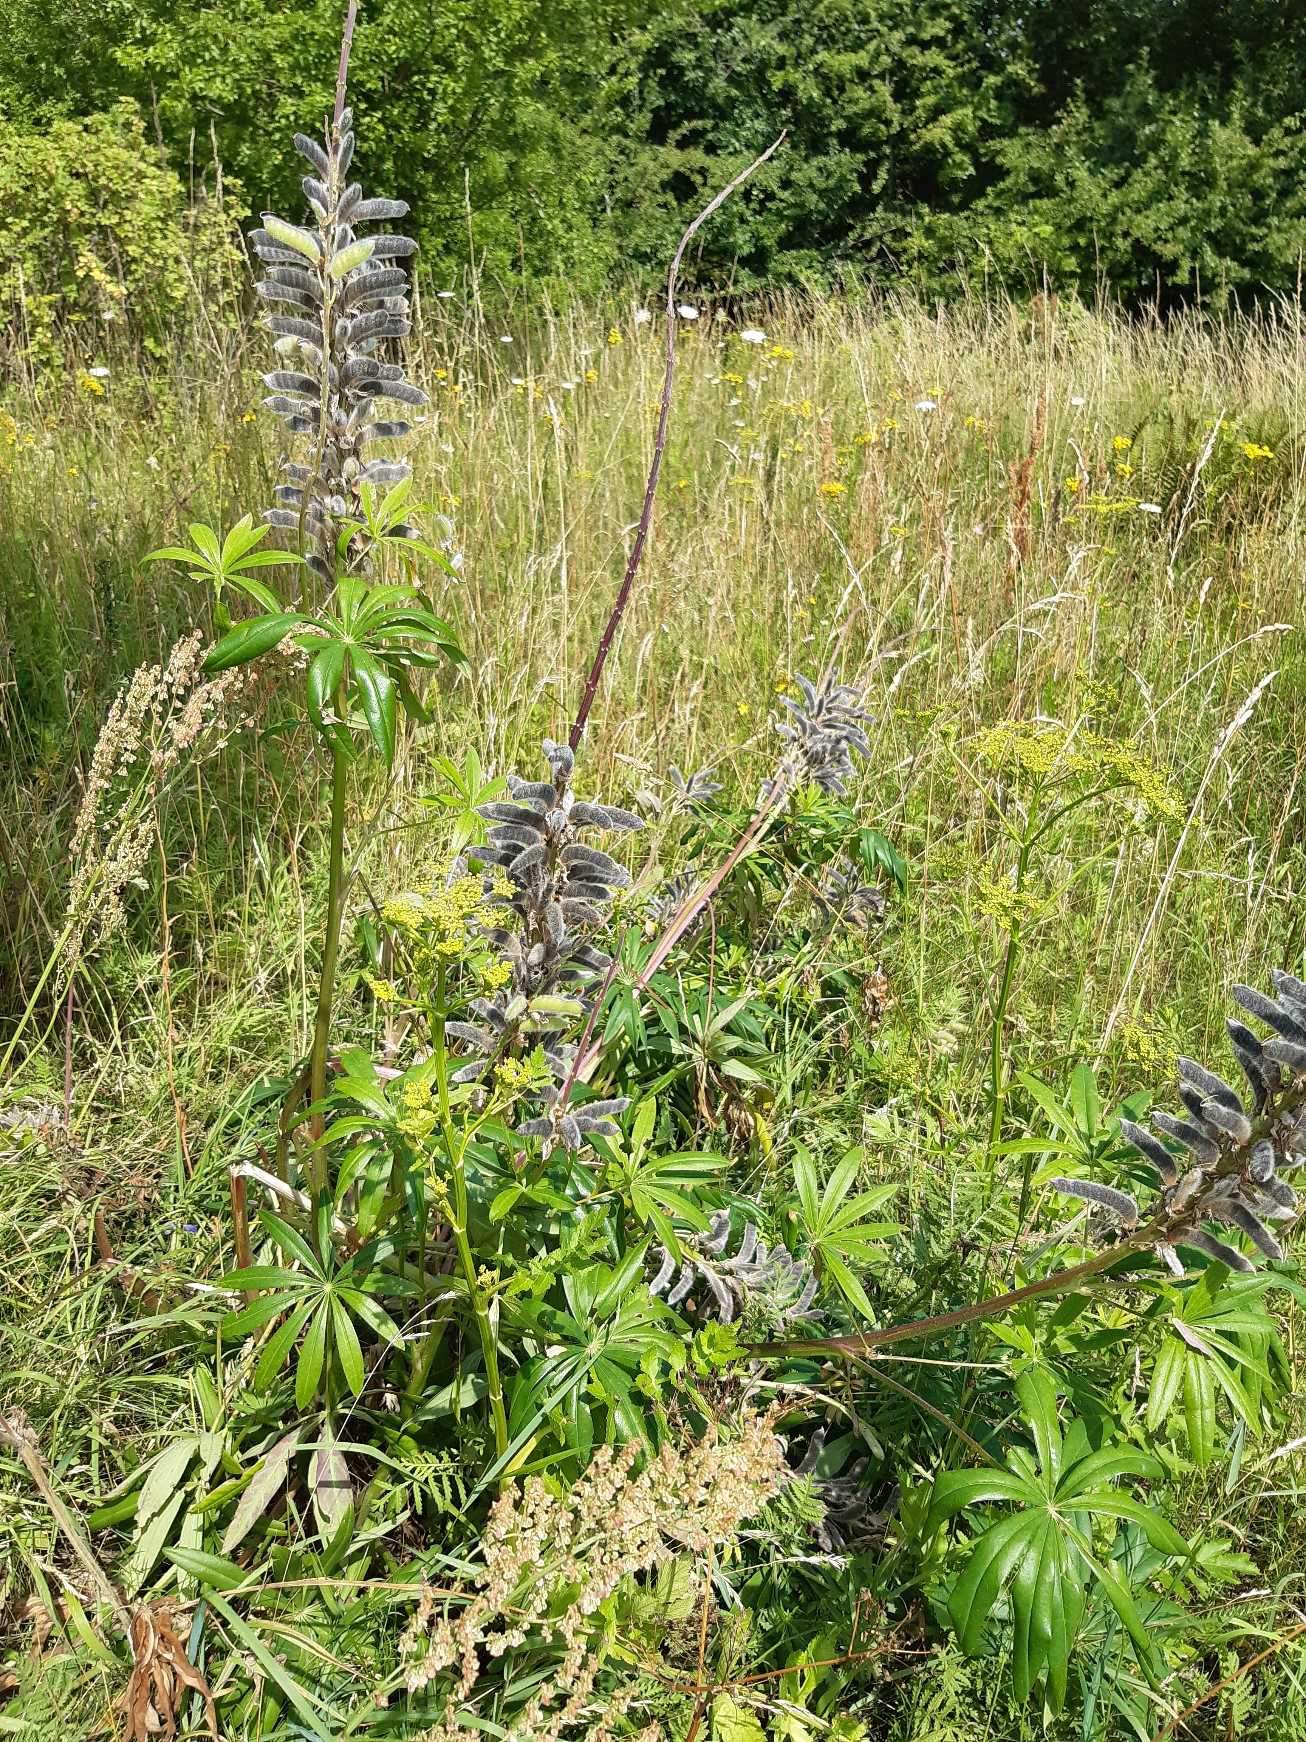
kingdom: Plantae
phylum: Tracheophyta
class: Magnoliopsida
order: Fabales
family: Fabaceae
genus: Lupinus
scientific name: Lupinus polyphyllus
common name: Mangebladet lupin
